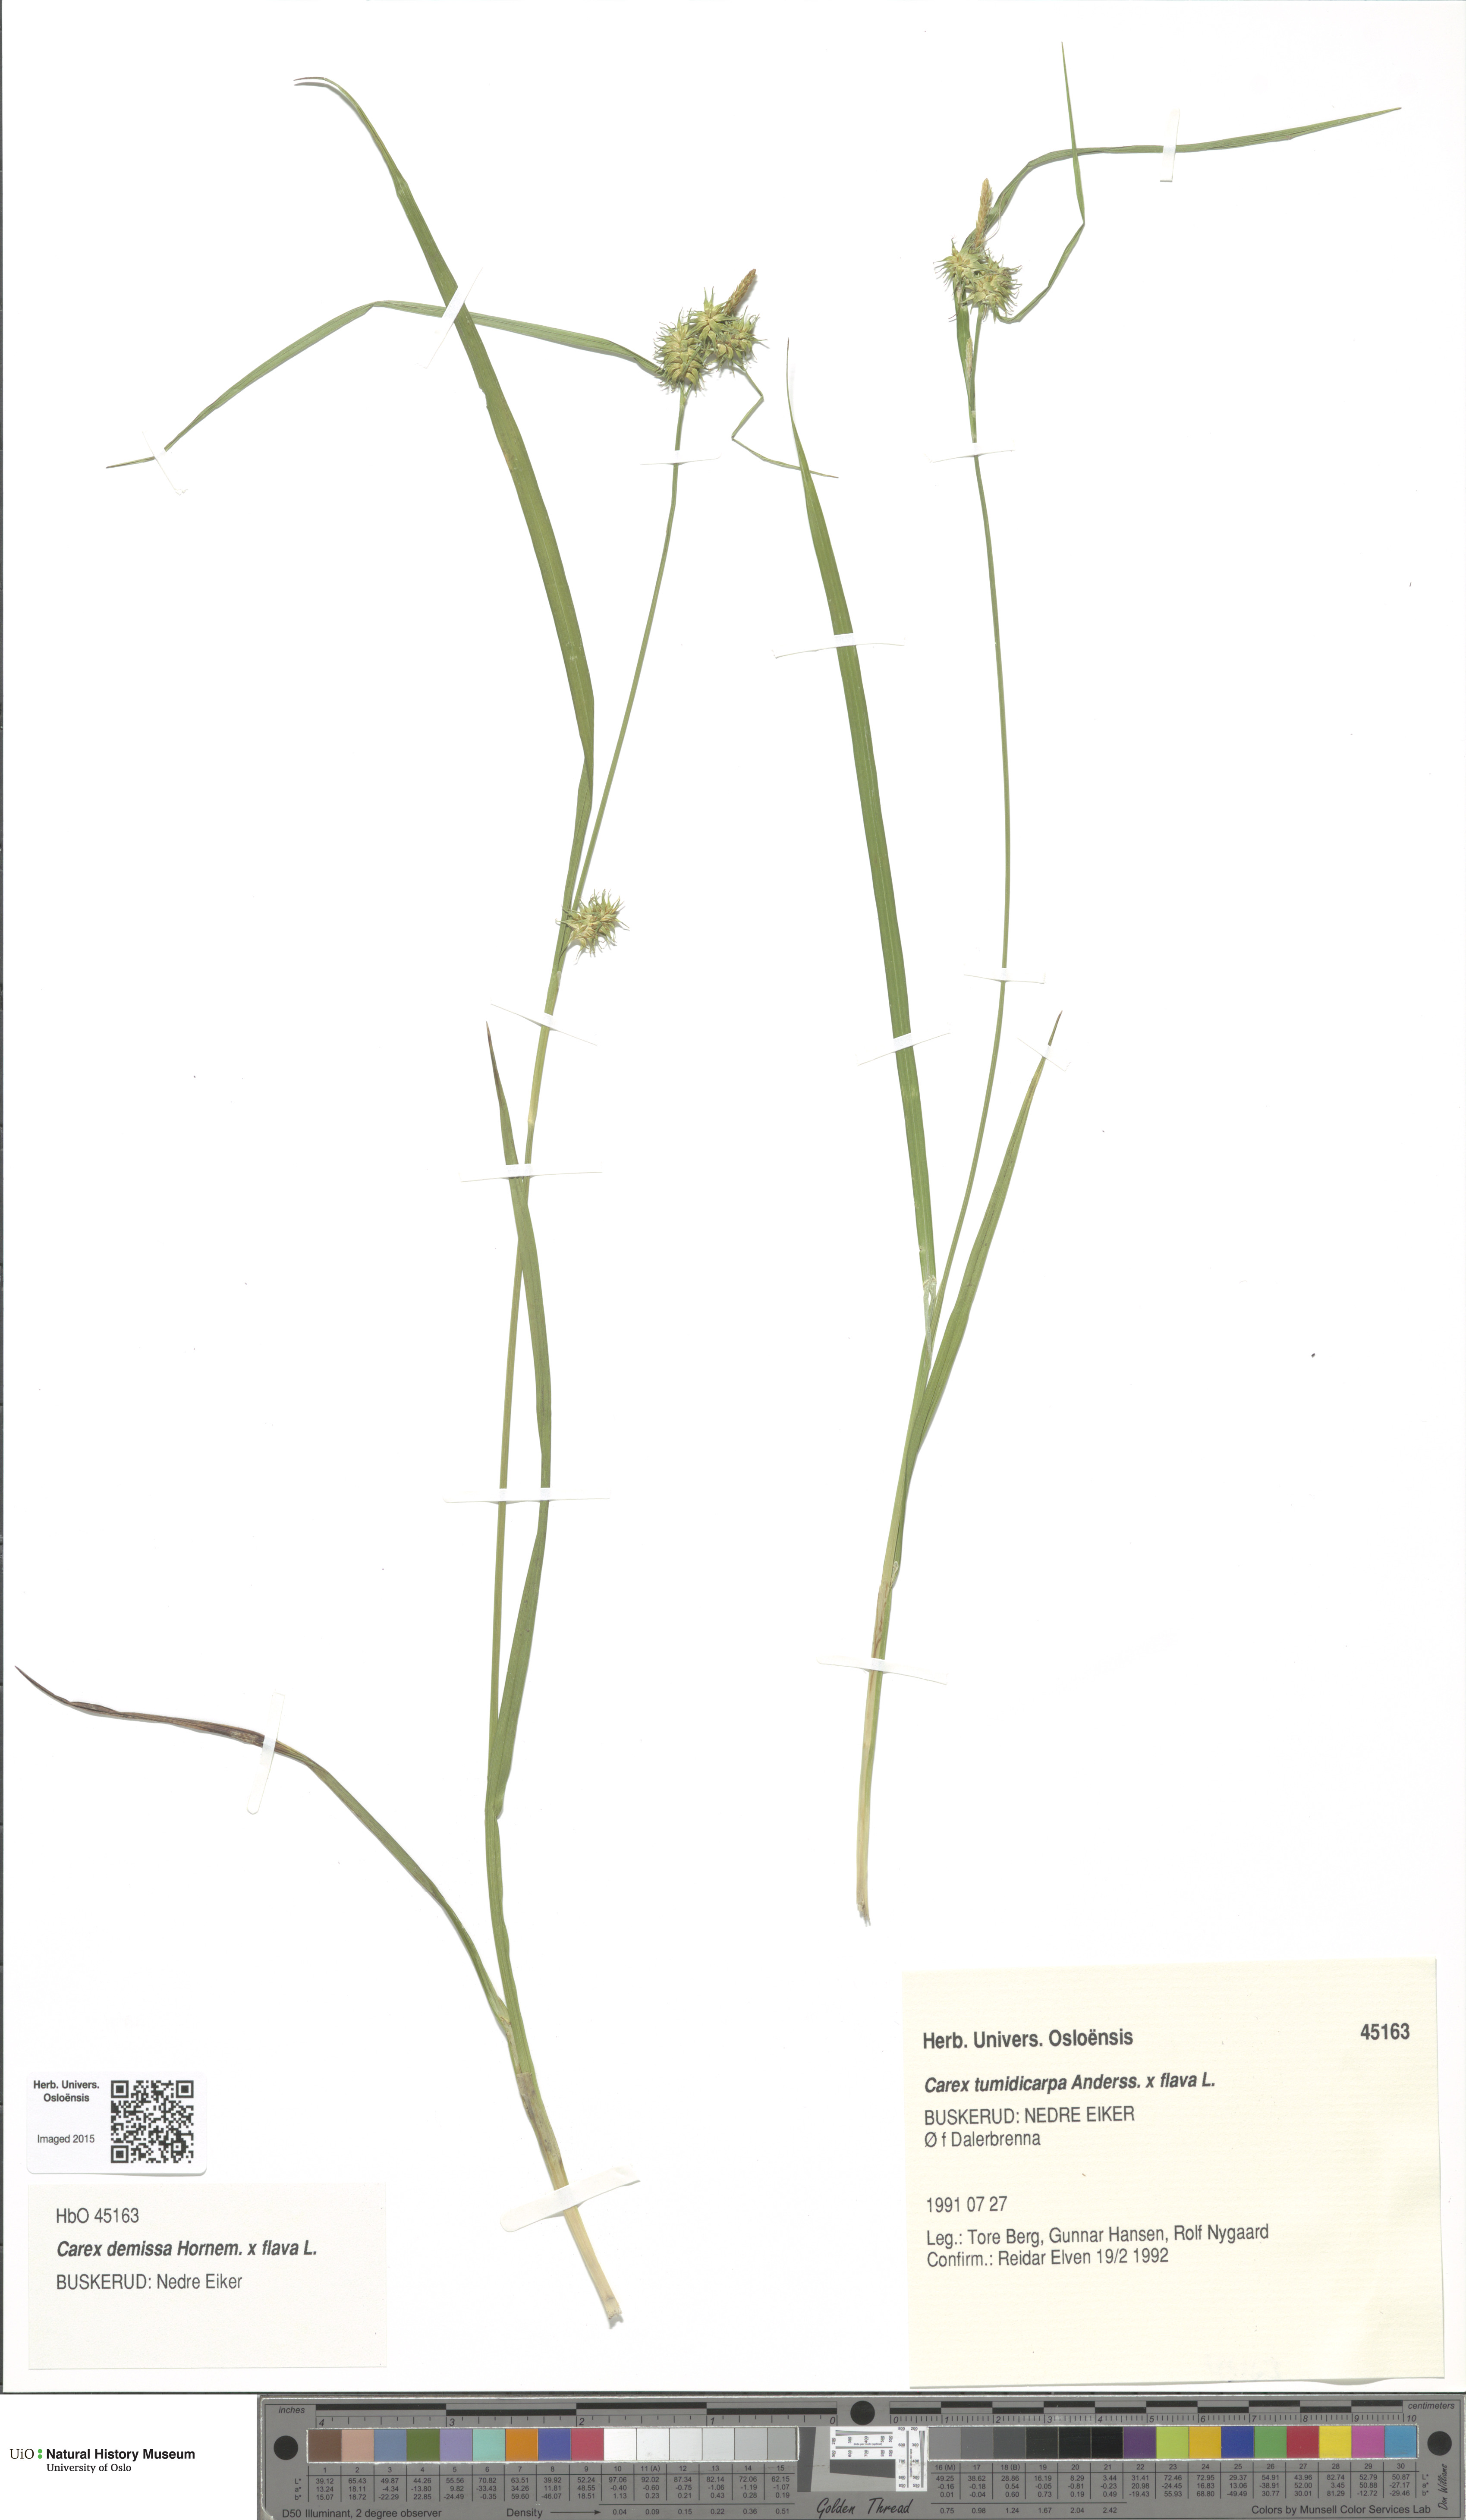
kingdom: Plantae
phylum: Tracheophyta
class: Liliopsida
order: Poales
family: Cyperaceae
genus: Carex
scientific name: Carex
